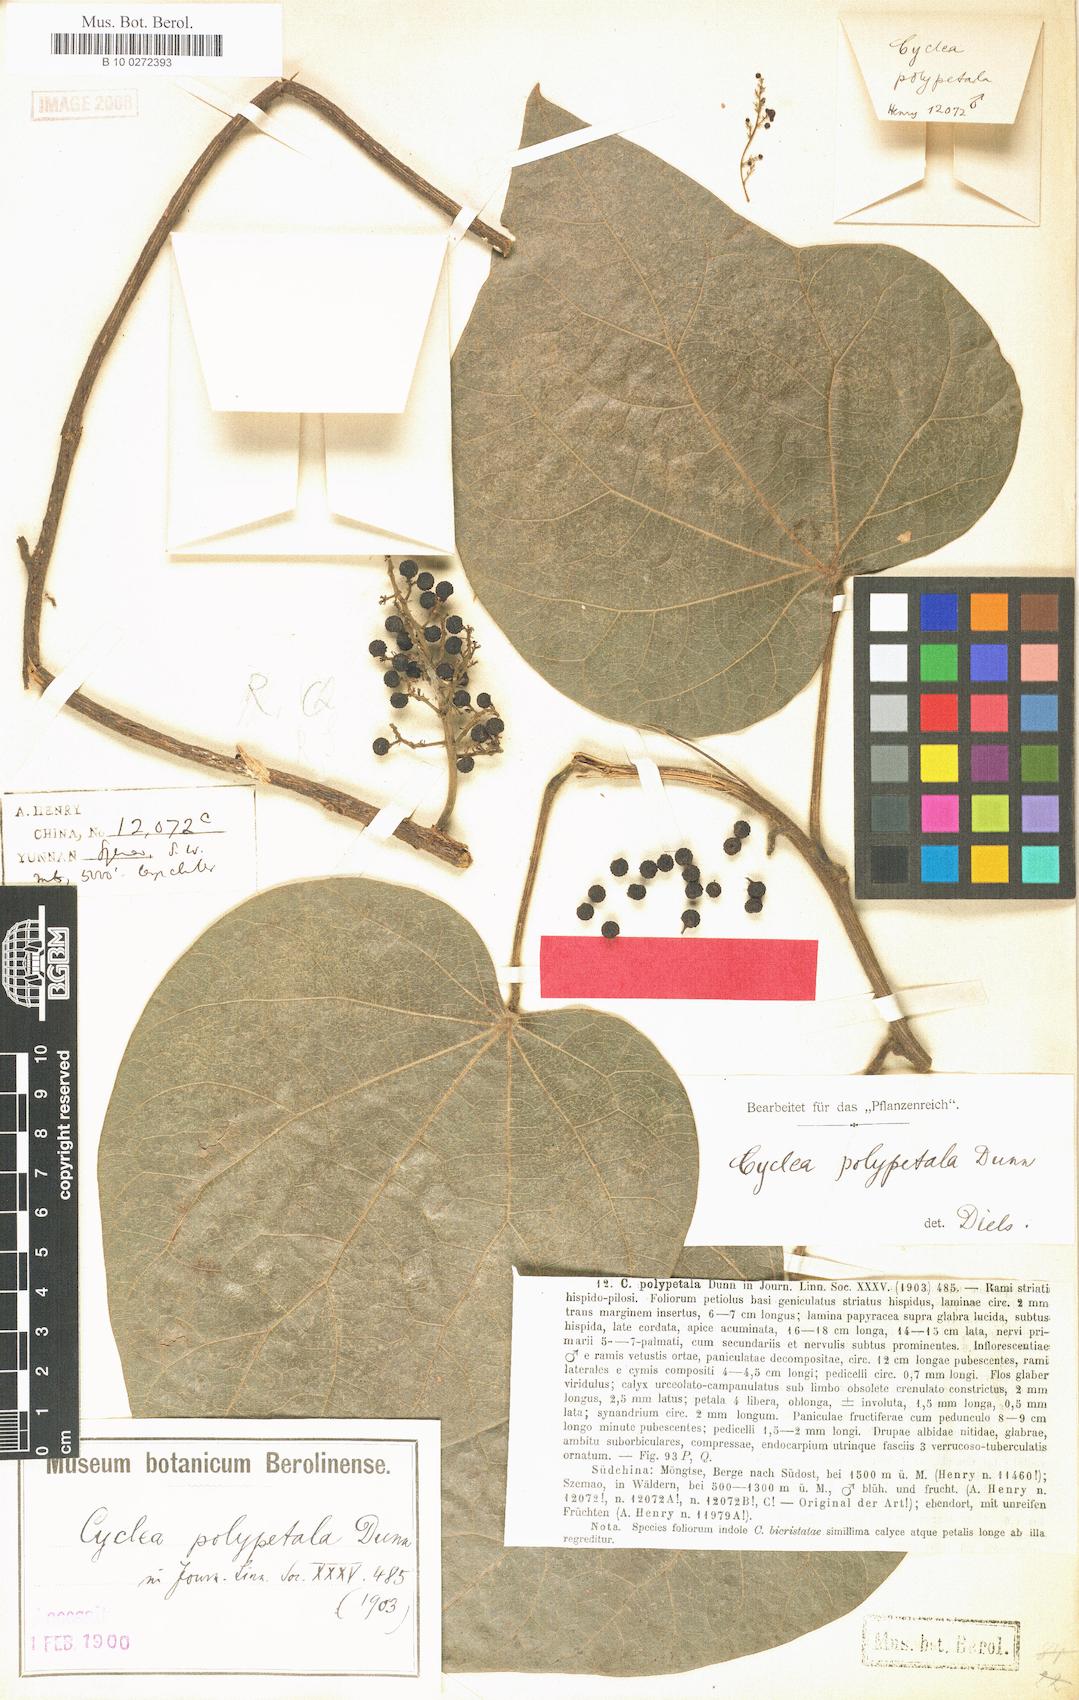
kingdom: Plantae
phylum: Tracheophyta
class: Magnoliopsida
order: Ranunculales
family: Menispermaceae
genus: Cyclea
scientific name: Cyclea polypetala
